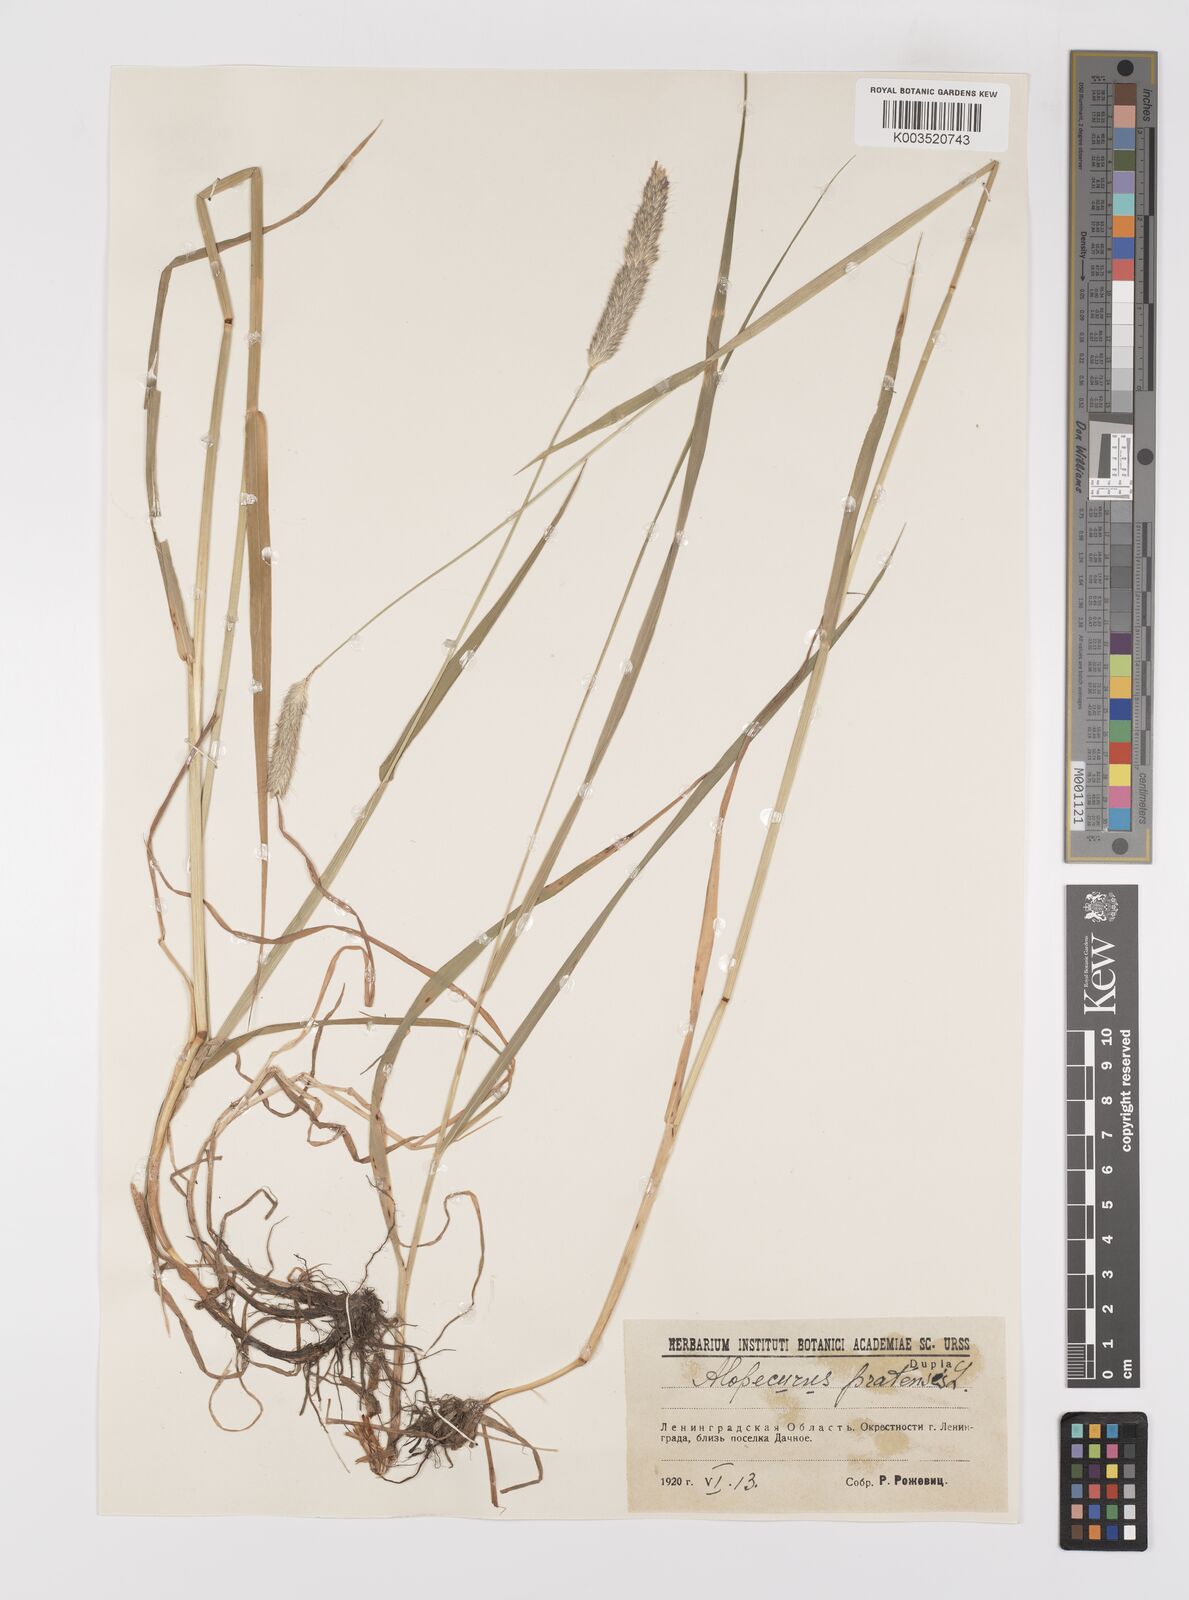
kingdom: Plantae
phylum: Tracheophyta
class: Liliopsida
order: Poales
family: Poaceae
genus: Alopecurus
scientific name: Alopecurus pratensis
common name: Meadow foxtail
